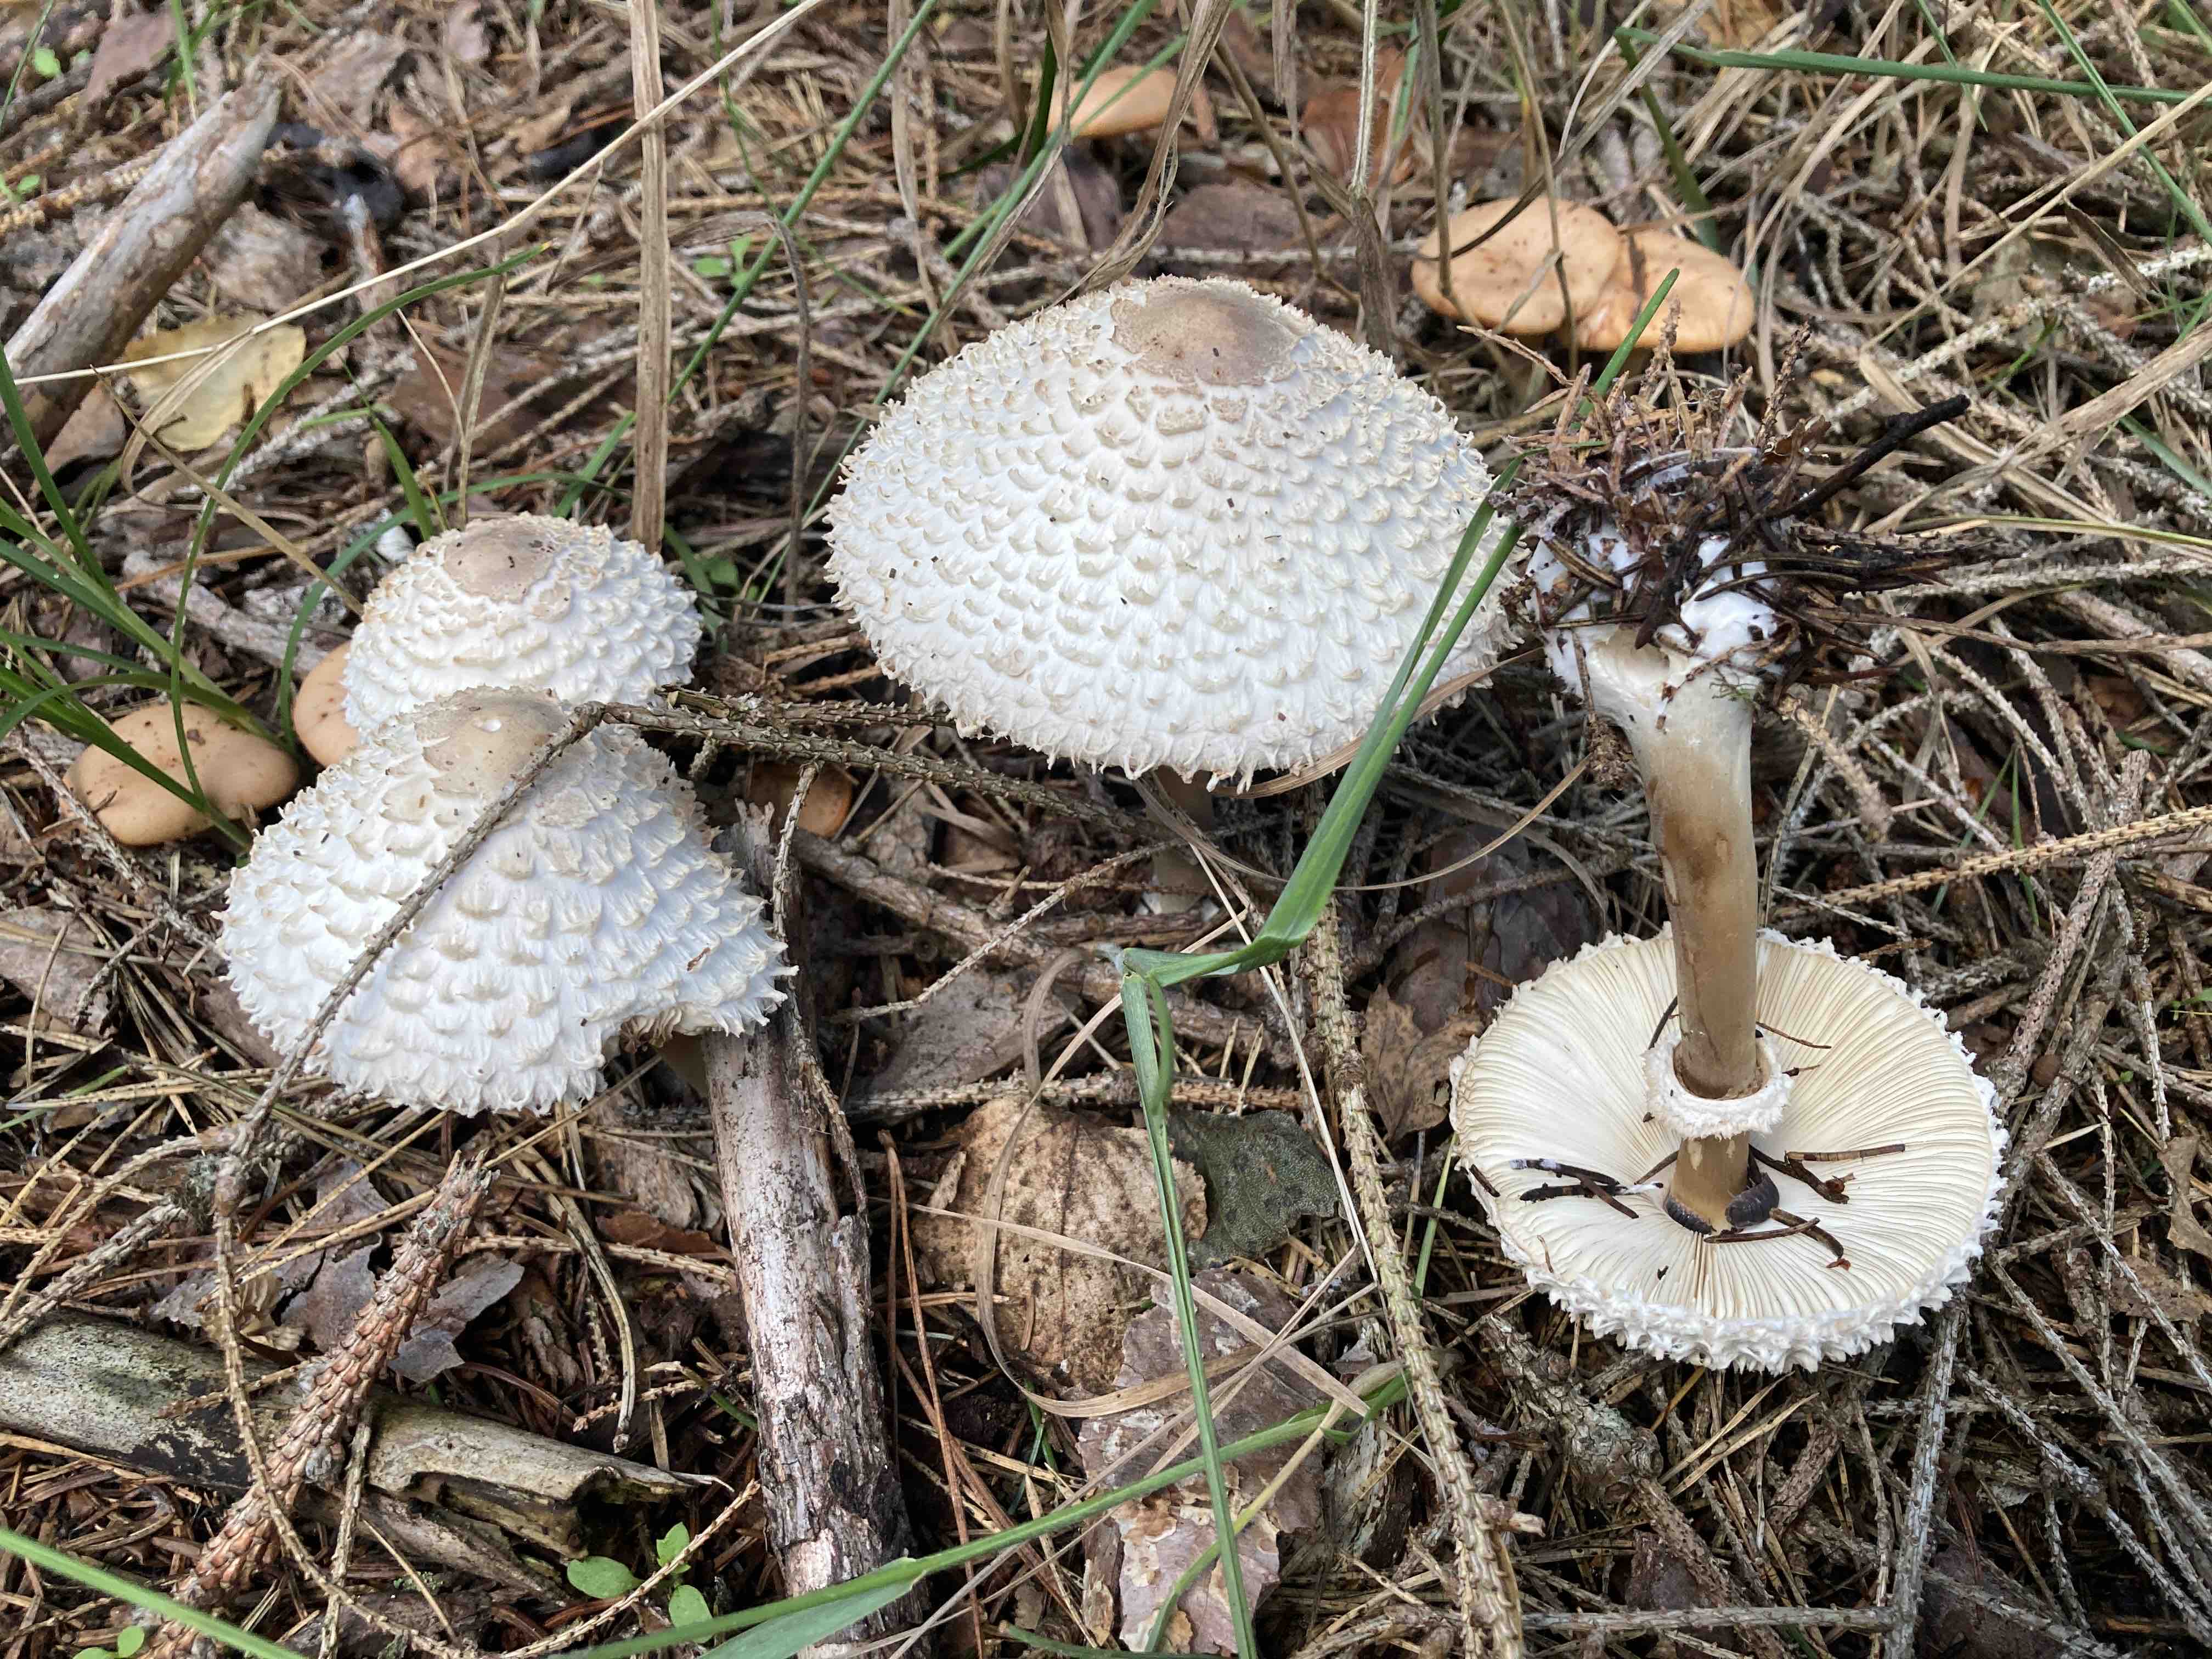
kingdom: Fungi
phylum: Basidiomycota
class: Agaricomycetes
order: Agaricales
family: Agaricaceae
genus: Leucoagaricus
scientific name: Leucoagaricus nympharum
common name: gran-silkehat
